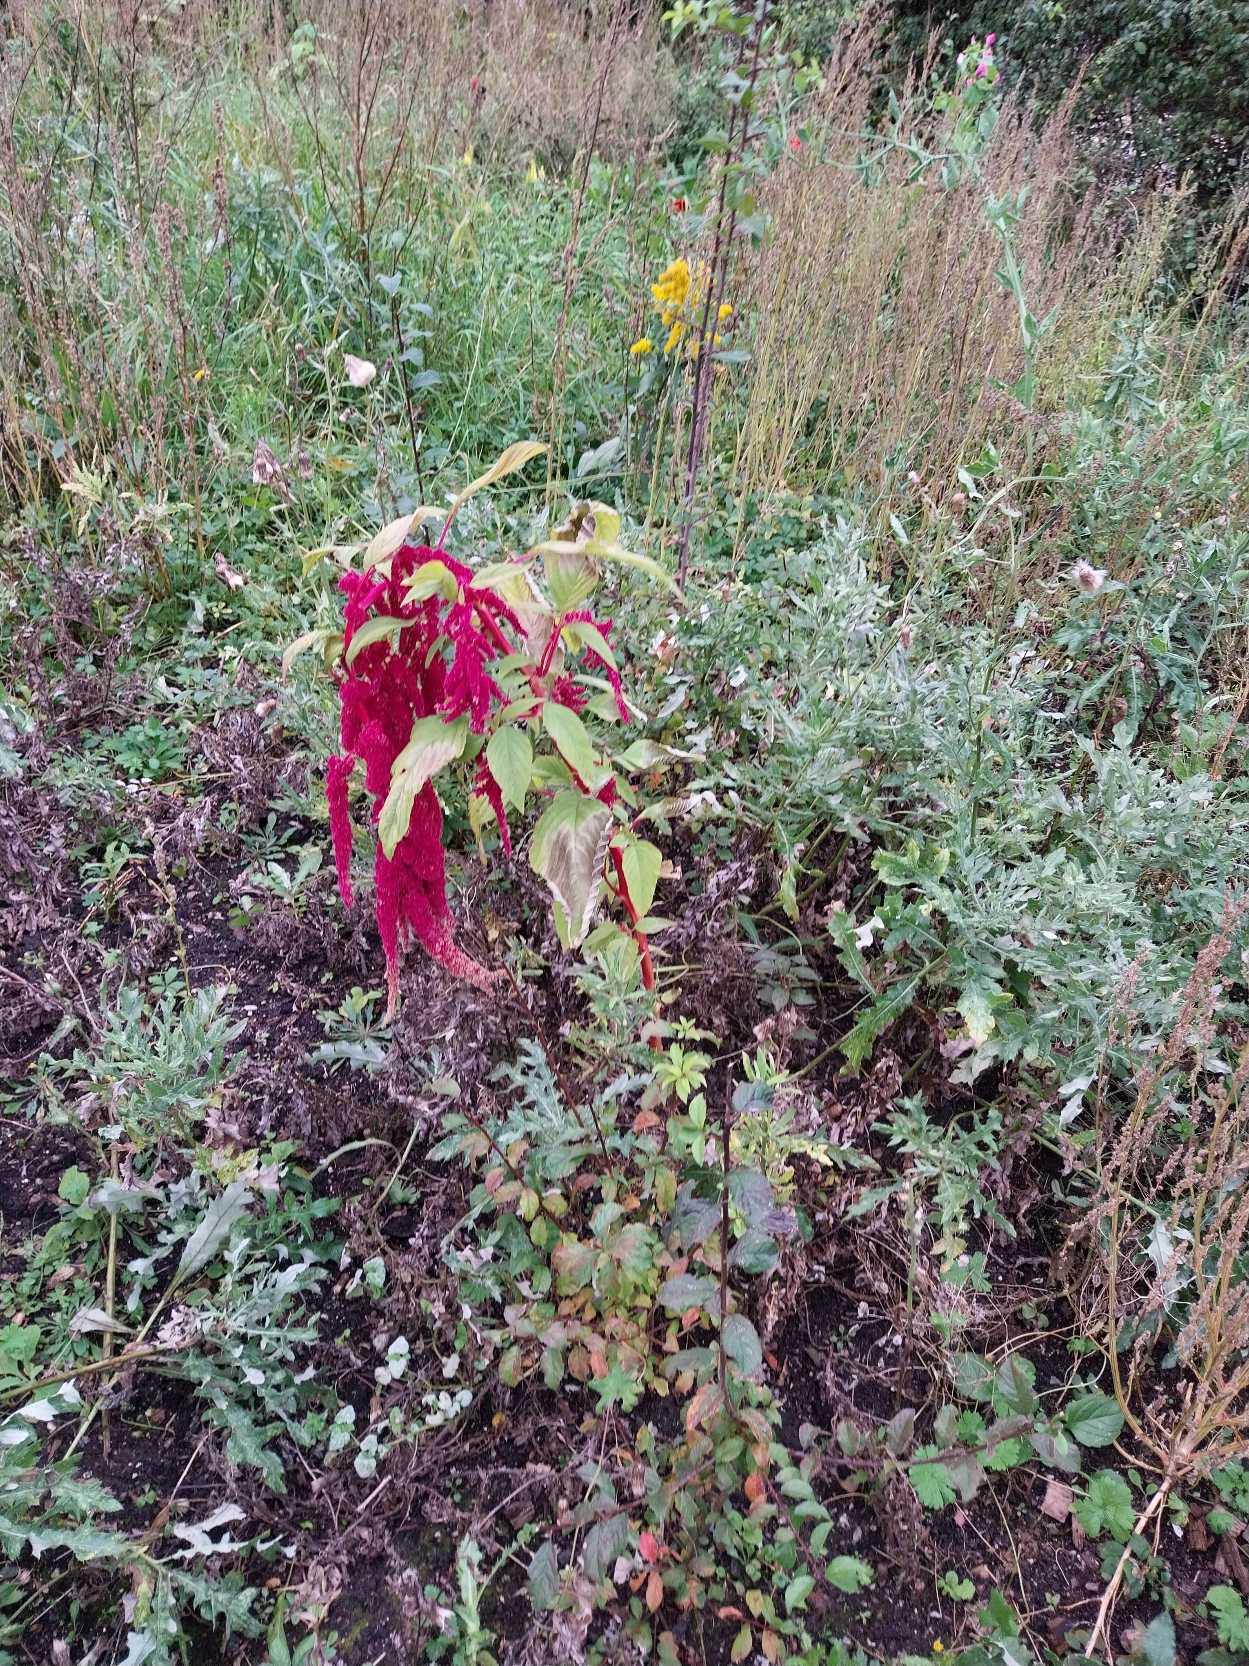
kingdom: Plantae
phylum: Tracheophyta
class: Magnoliopsida
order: Caryophyllales
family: Amaranthaceae
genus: Amaranthus
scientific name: Amaranthus caudatus
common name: Rævehale-amarant
